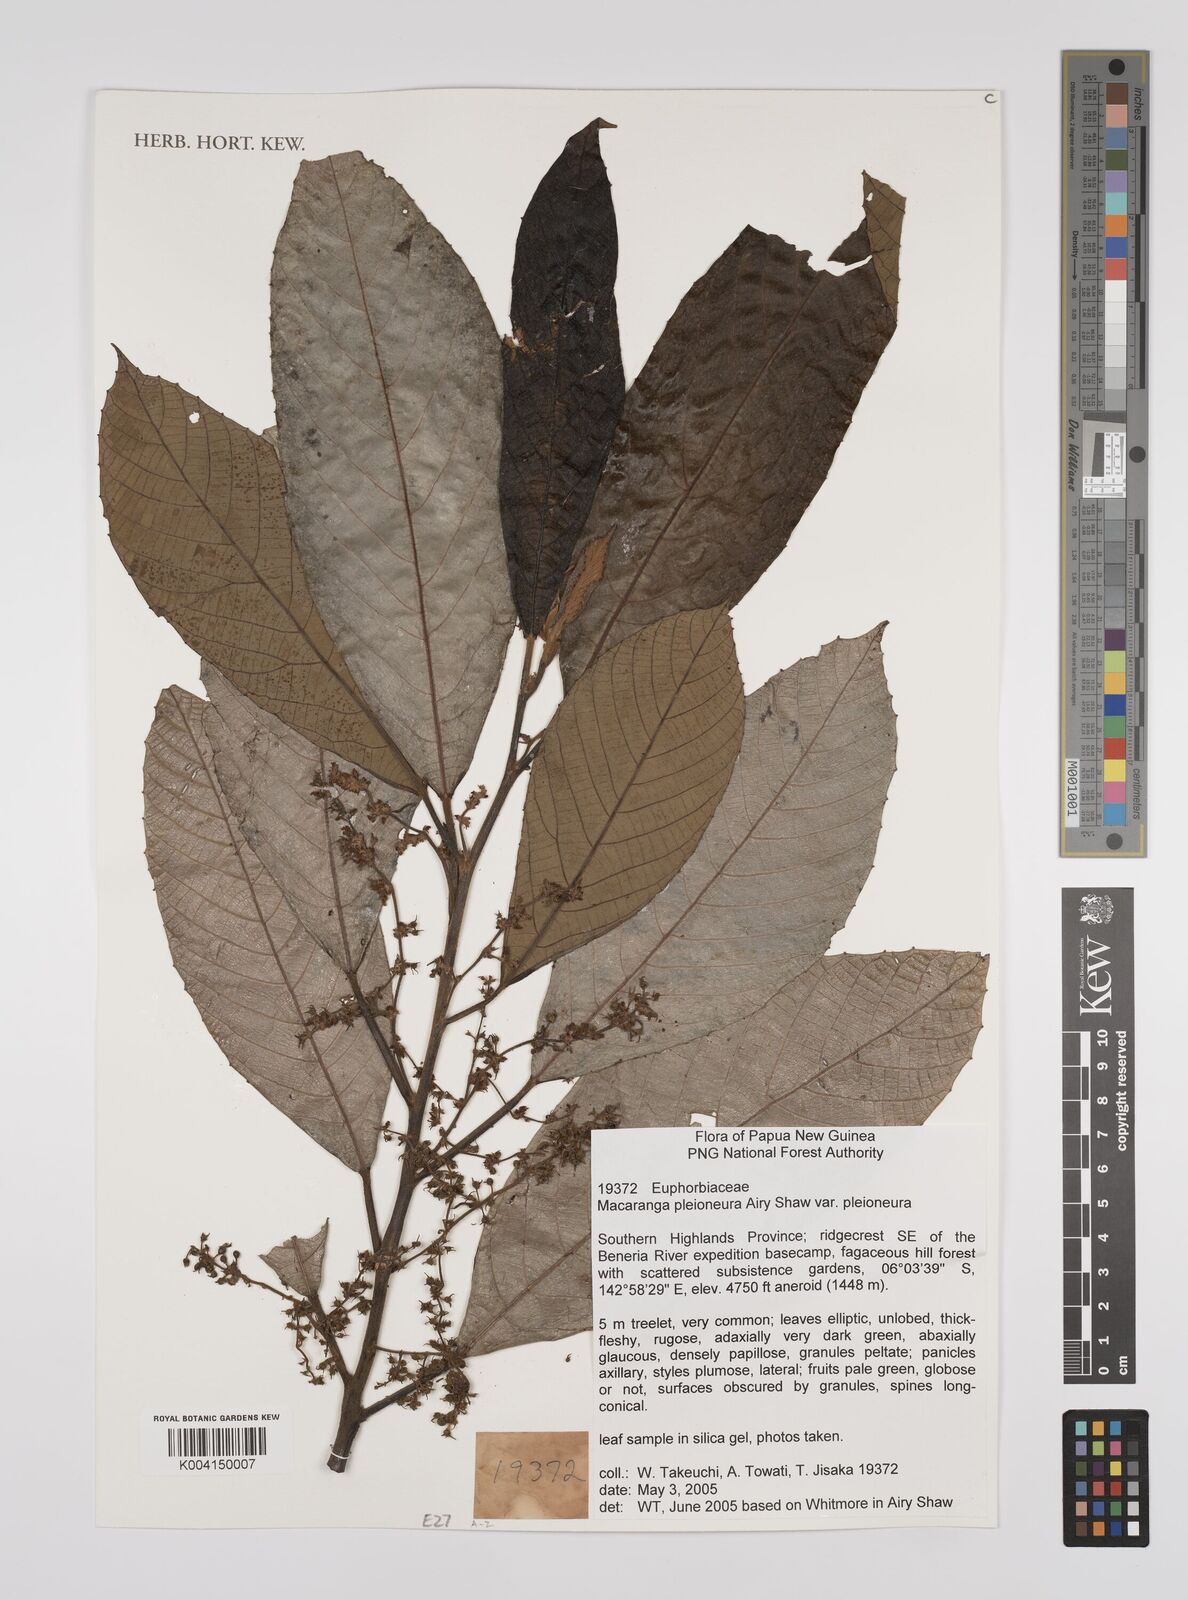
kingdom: Plantae
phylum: Tracheophyta
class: Magnoliopsida
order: Malpighiales
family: Euphorbiaceae
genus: Macaranga
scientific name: Macaranga pleioneura
